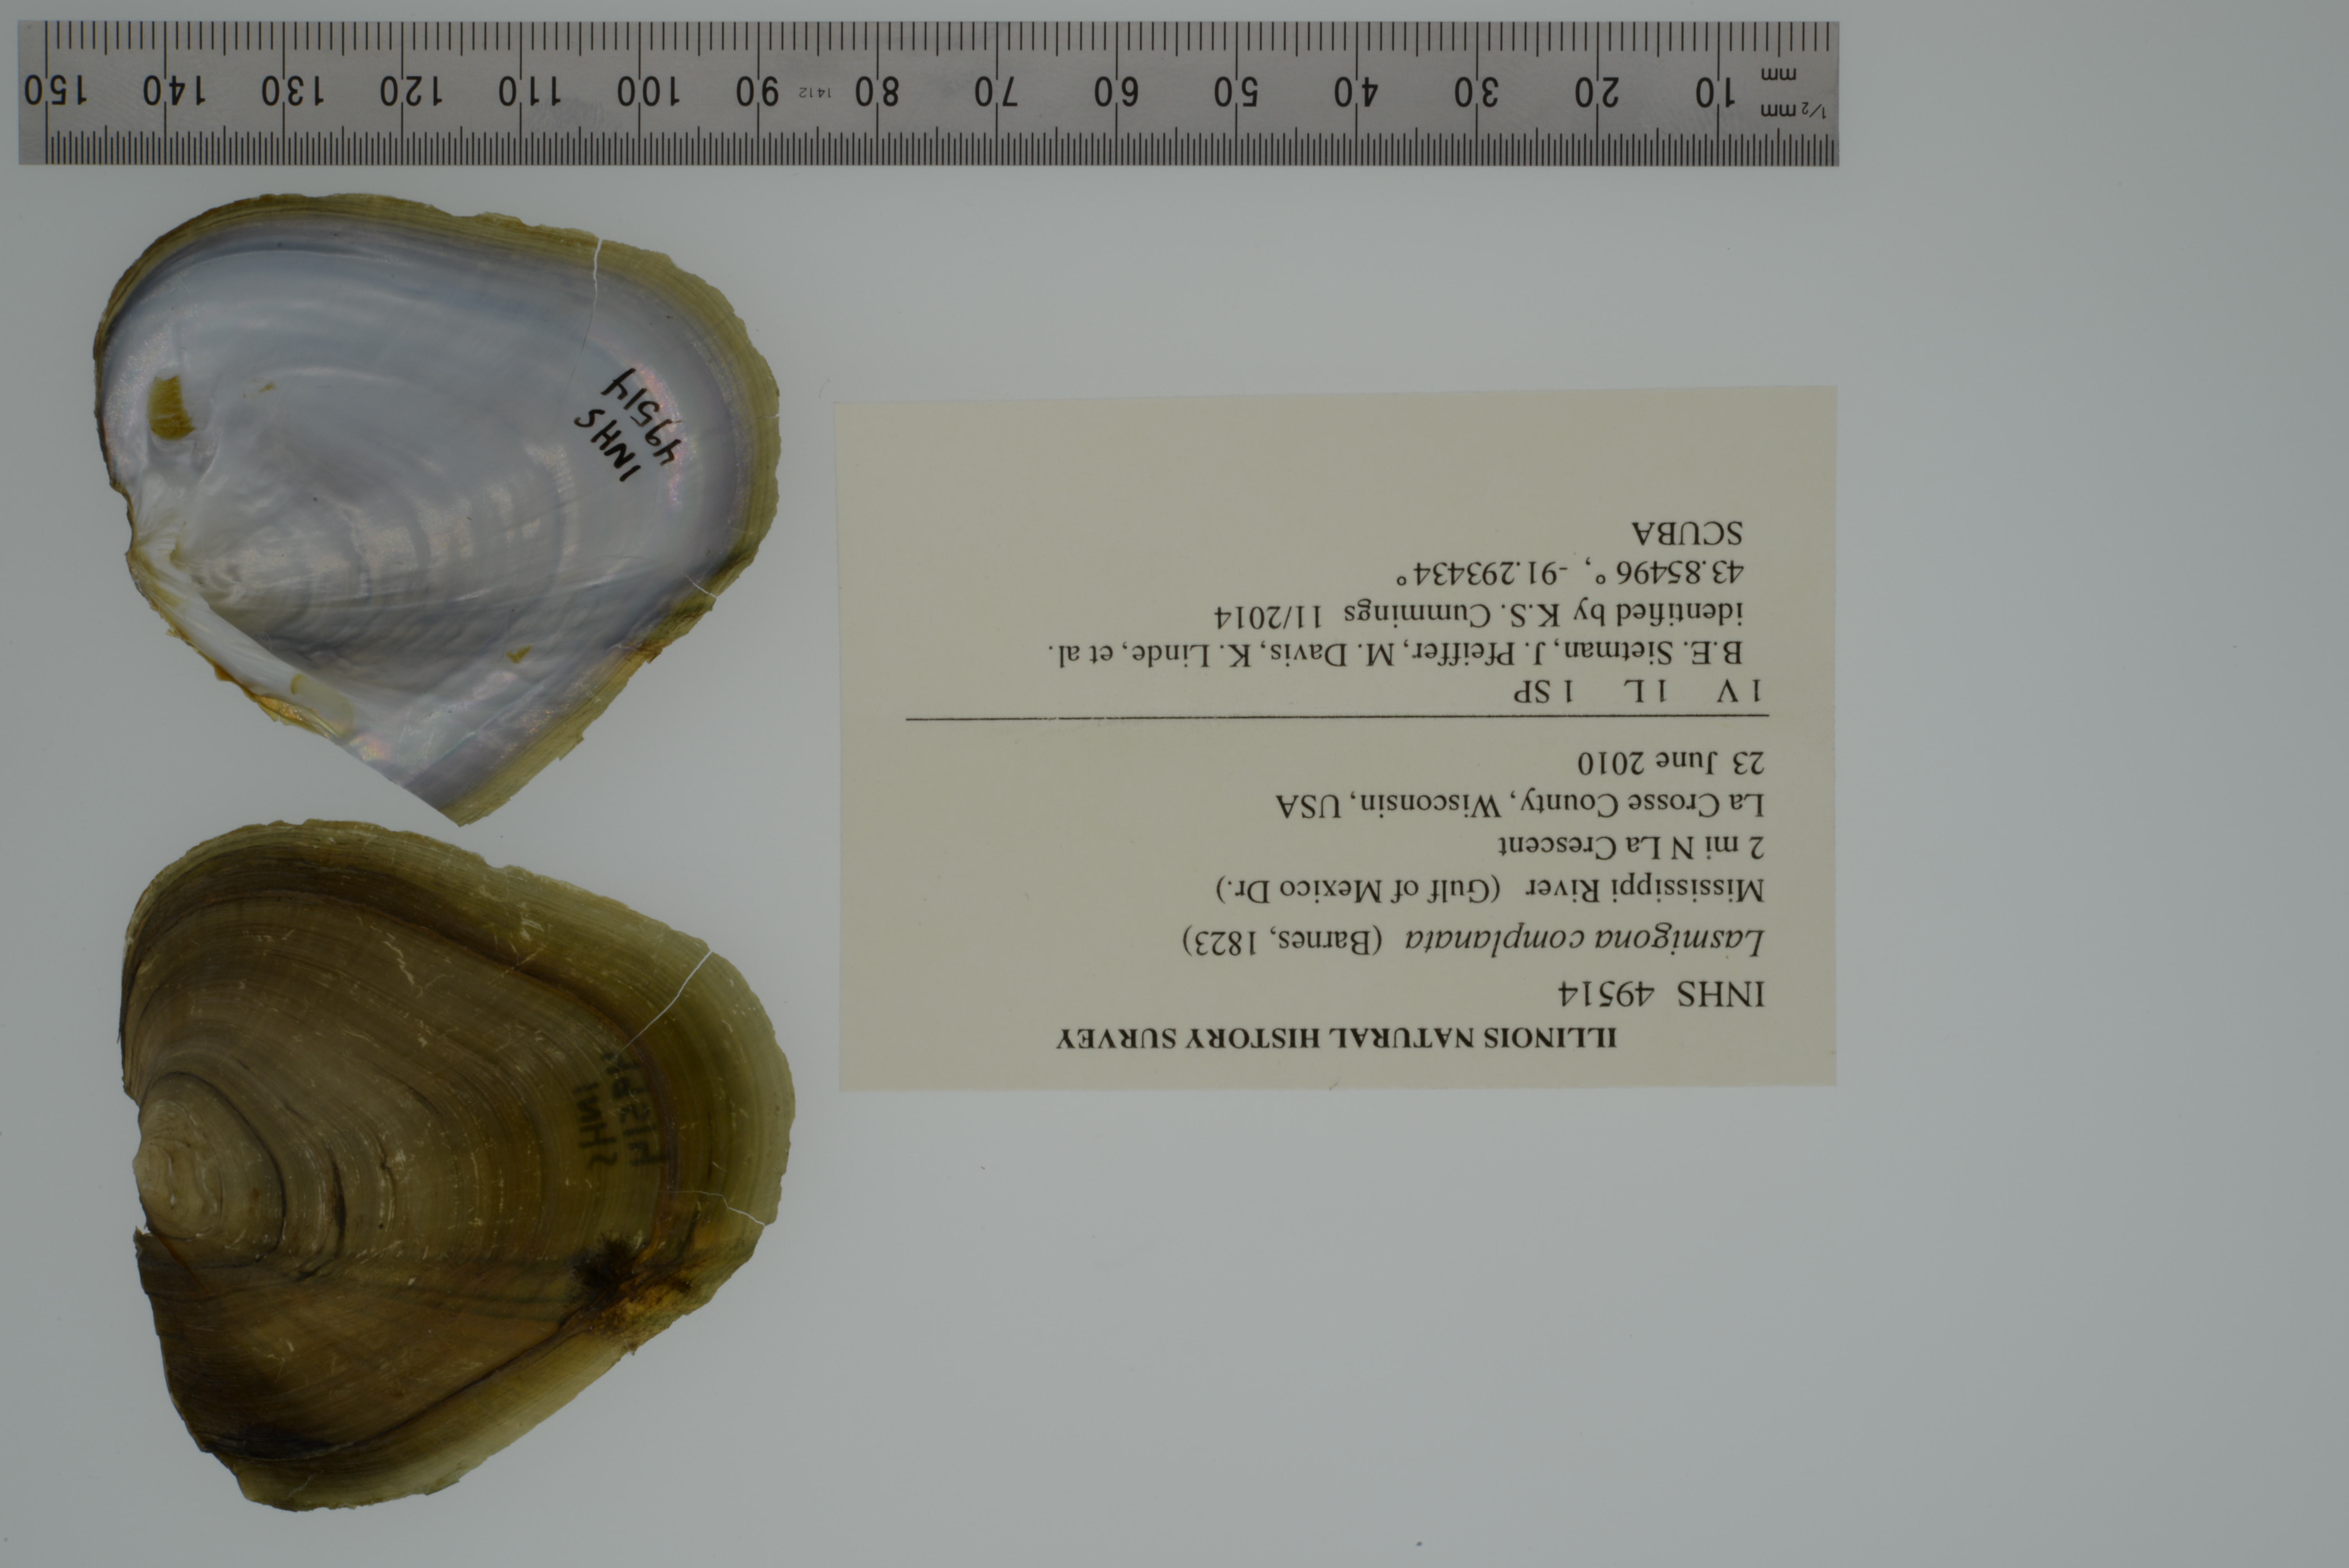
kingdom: Animalia
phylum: Mollusca
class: Bivalvia
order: Unionida
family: Unionidae
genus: Lasmigona
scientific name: Lasmigona complanata
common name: White heelsplitter
